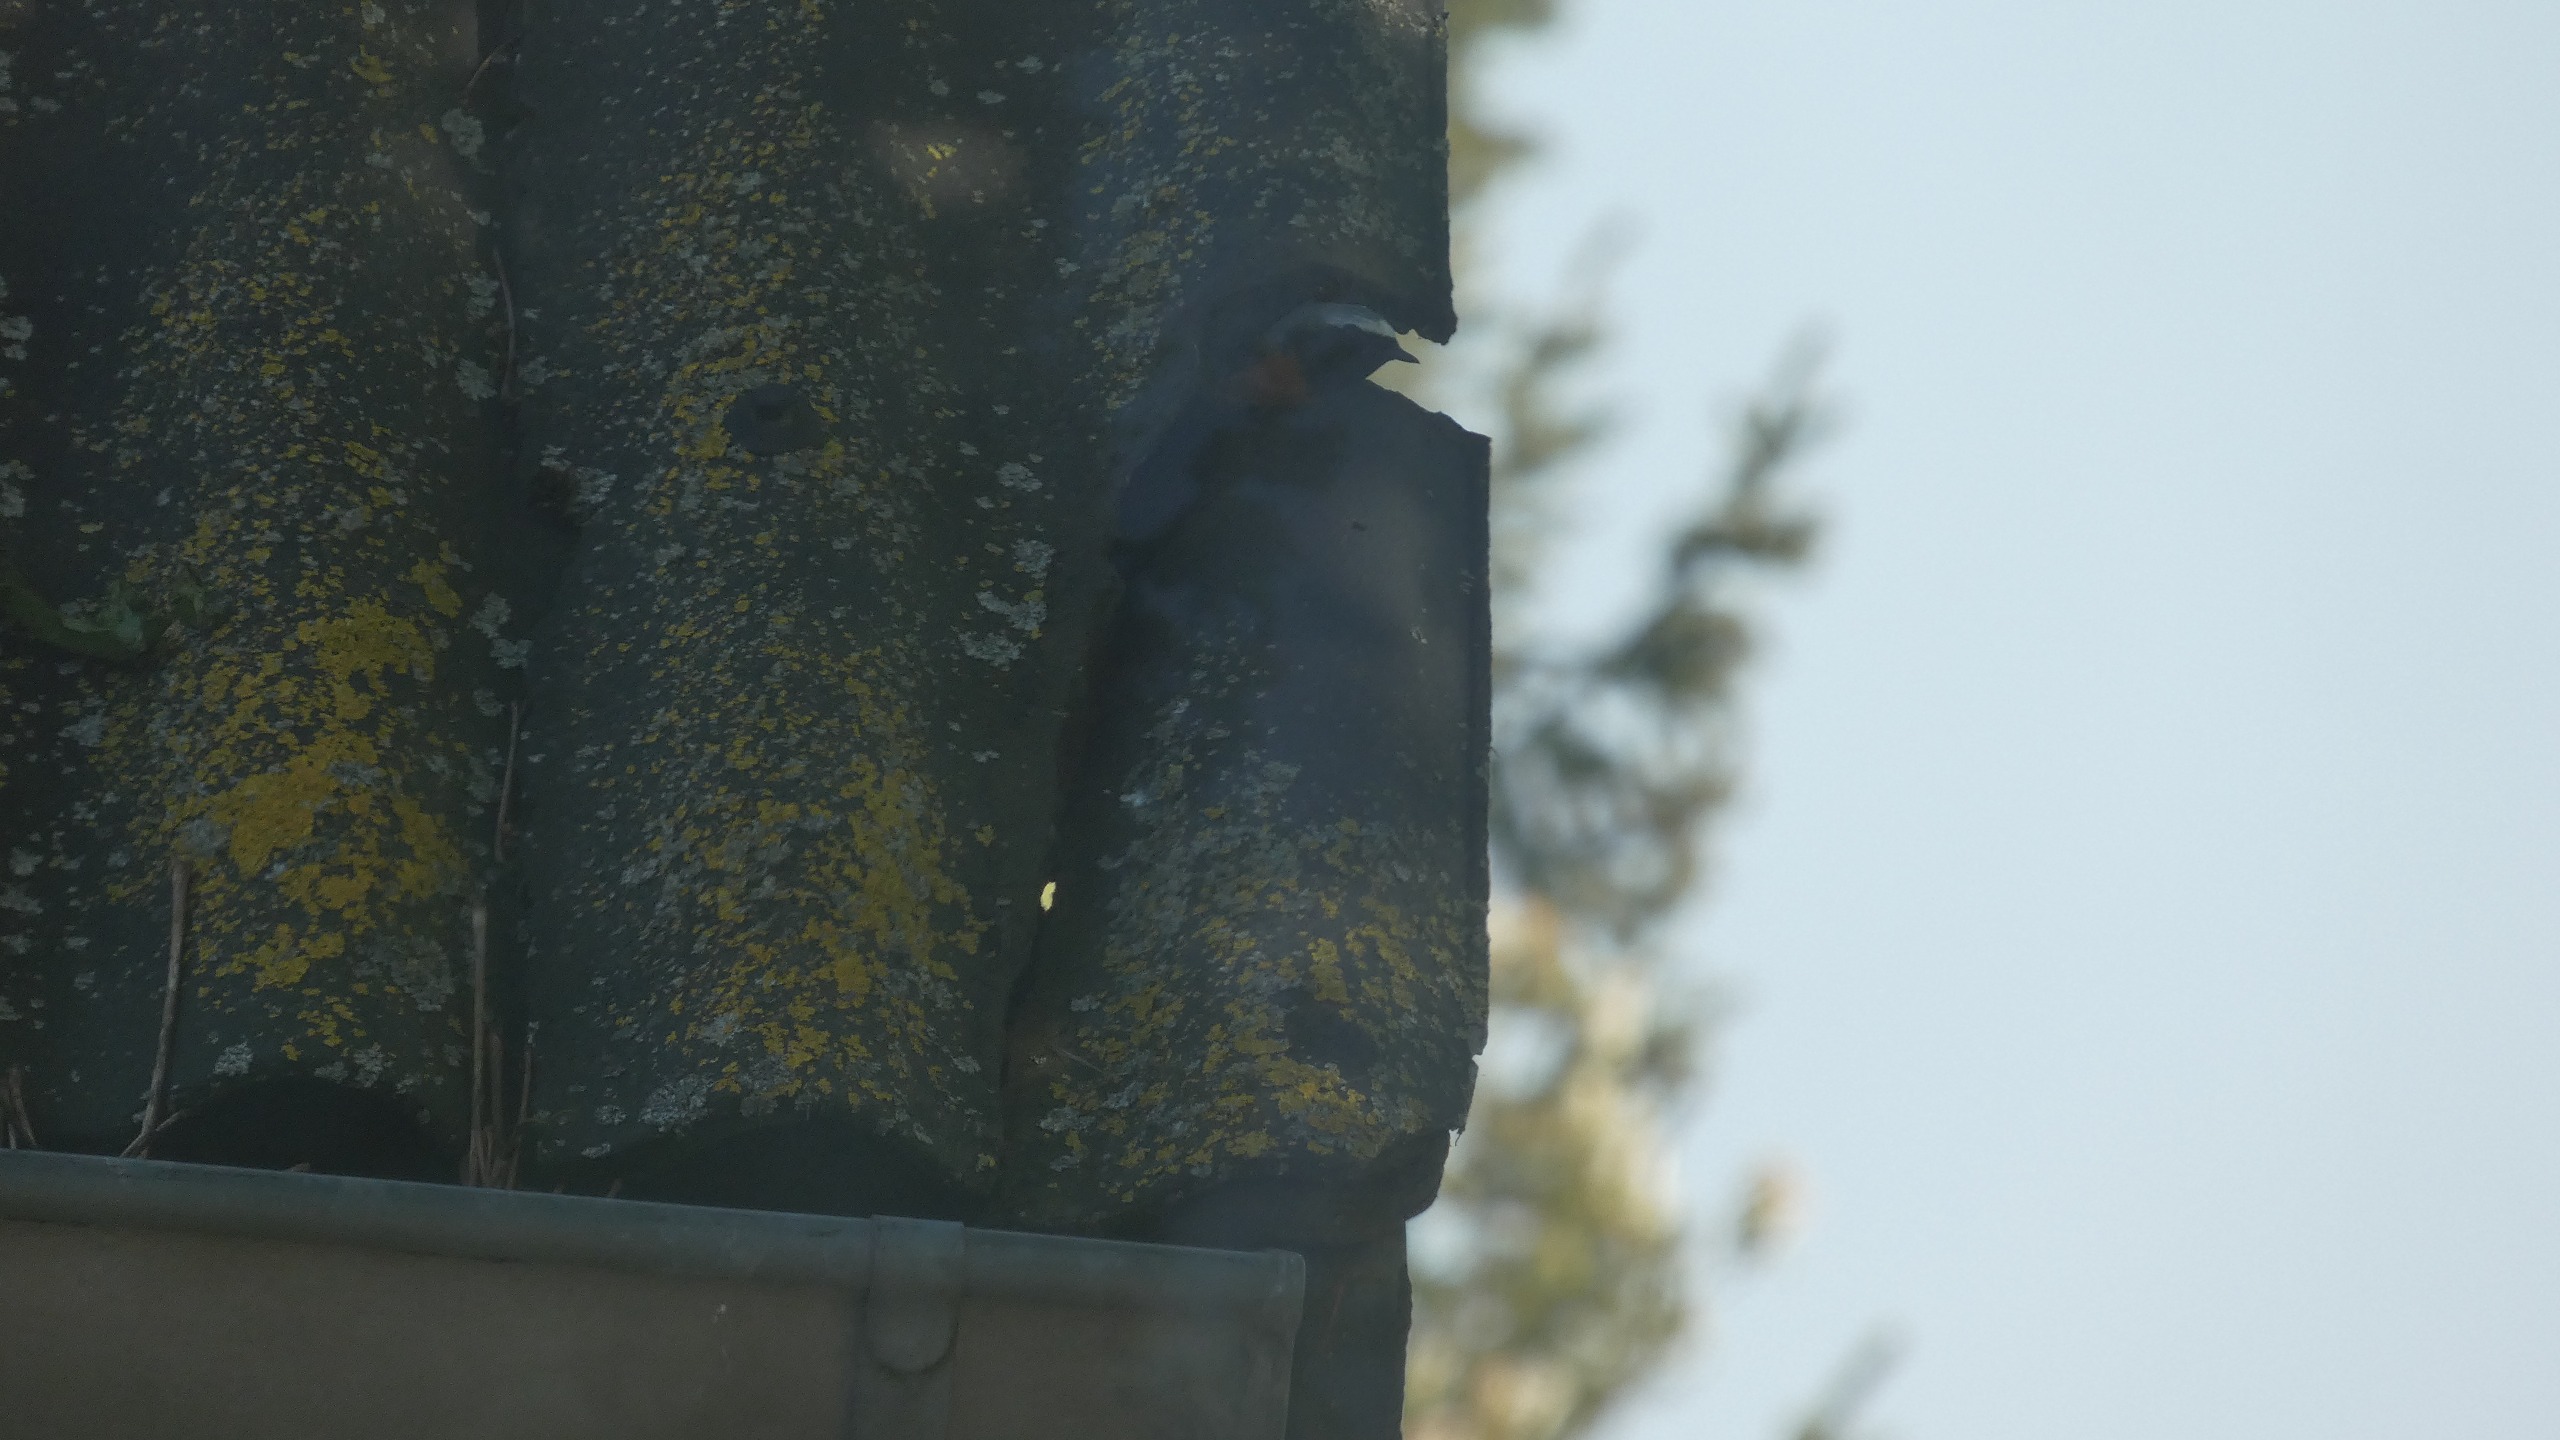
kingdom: Animalia
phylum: Chordata
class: Aves
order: Passeriformes
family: Muscicapidae
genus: Phoenicurus
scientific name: Phoenicurus phoenicurus
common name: Rødstjert
